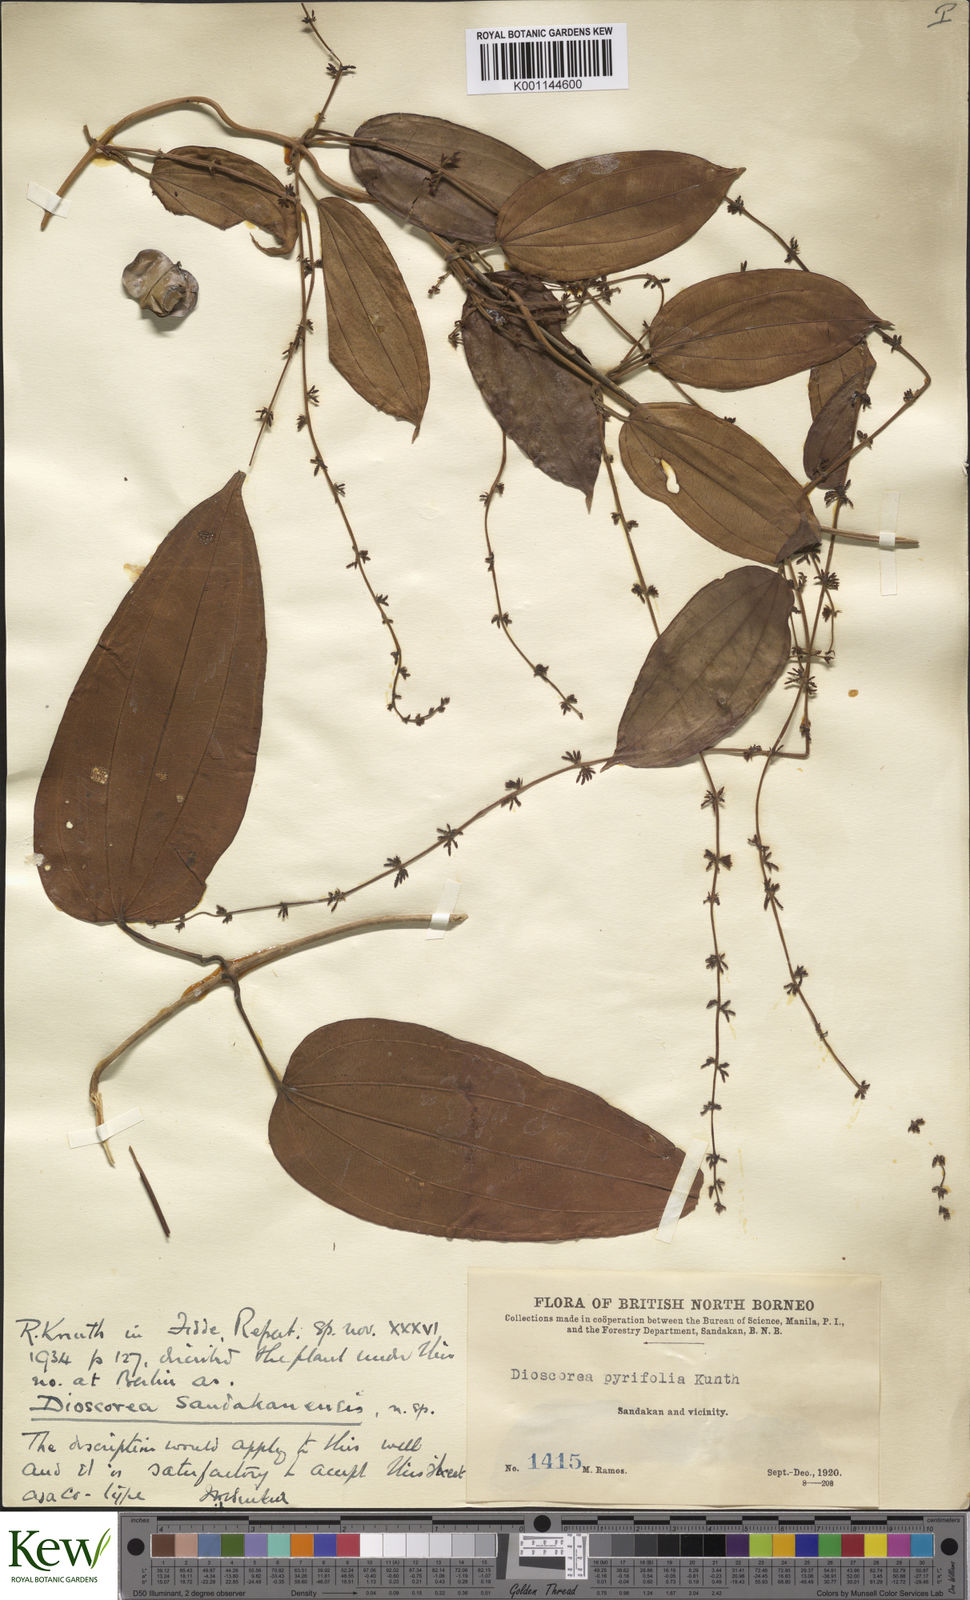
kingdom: Plantae
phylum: Tracheophyta
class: Liliopsida
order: Dioscoreales
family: Dioscoreaceae
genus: Dioscorea
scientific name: Dioscorea pyrifolia
